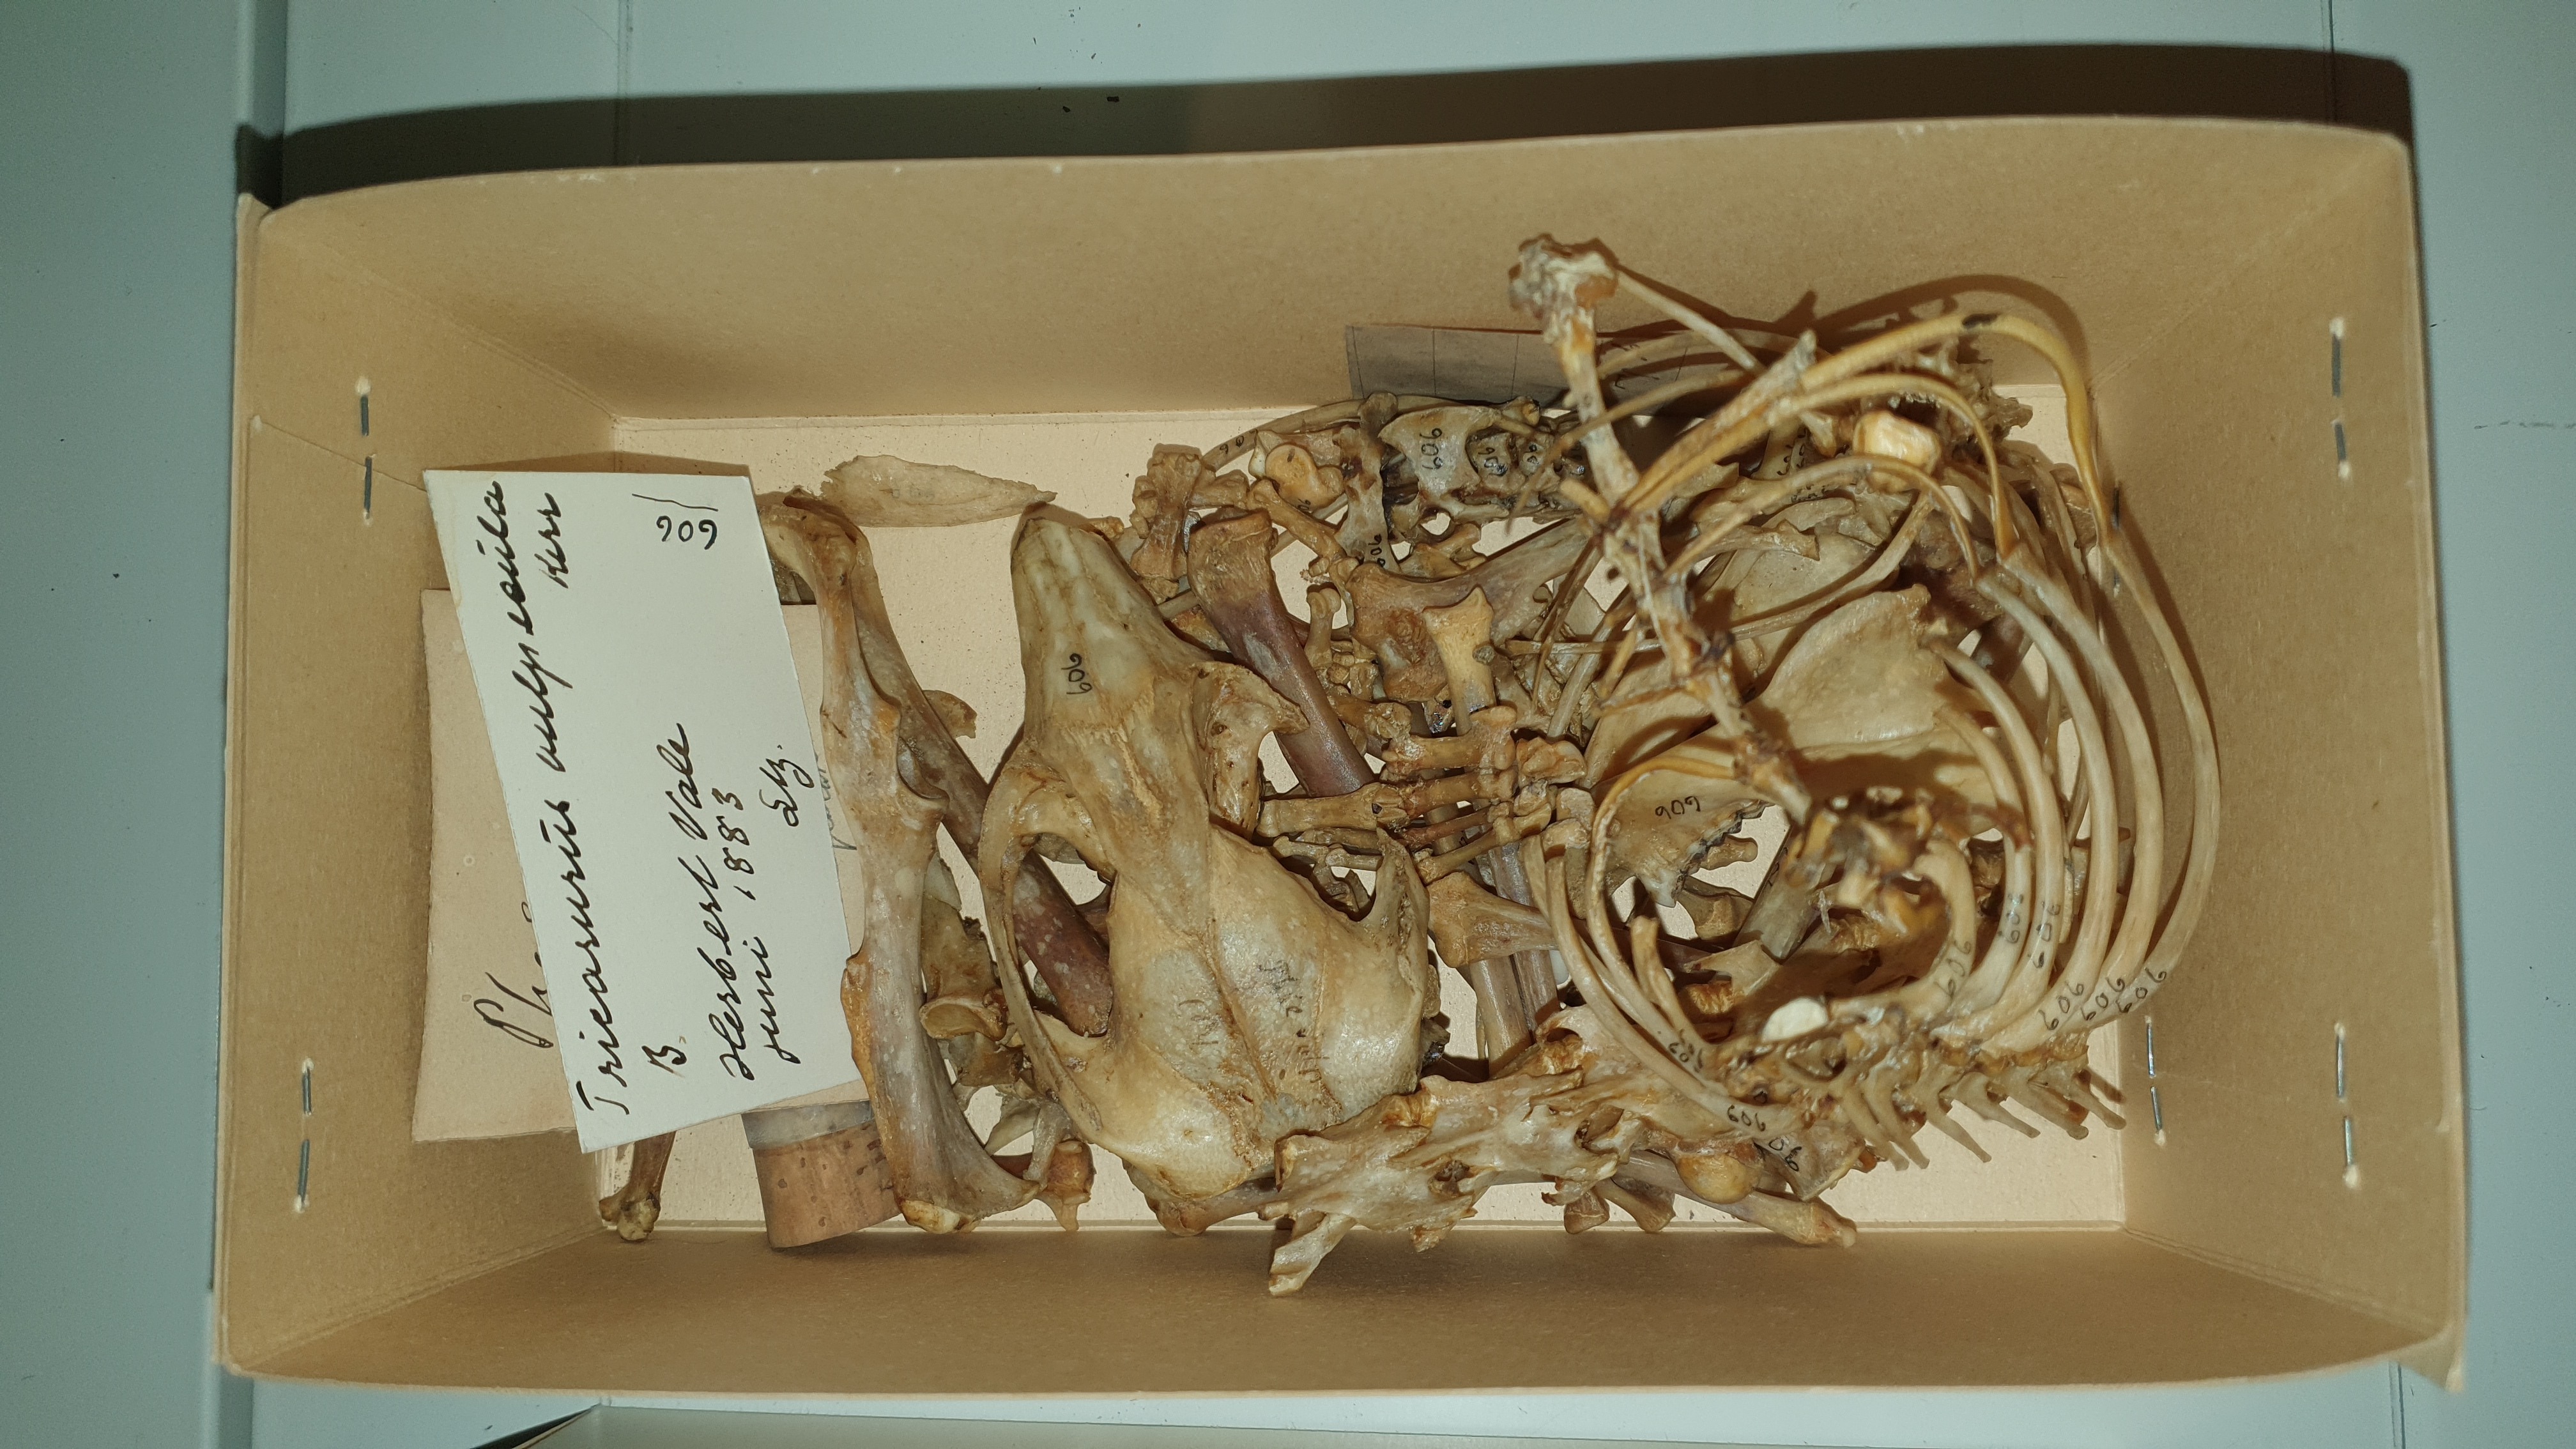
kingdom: Animalia
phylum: Chordata
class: Mammalia
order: Diprotodontia
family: Phalangeridae
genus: Trichosurus
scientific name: Trichosurus vulpecula
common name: Common brushtail
